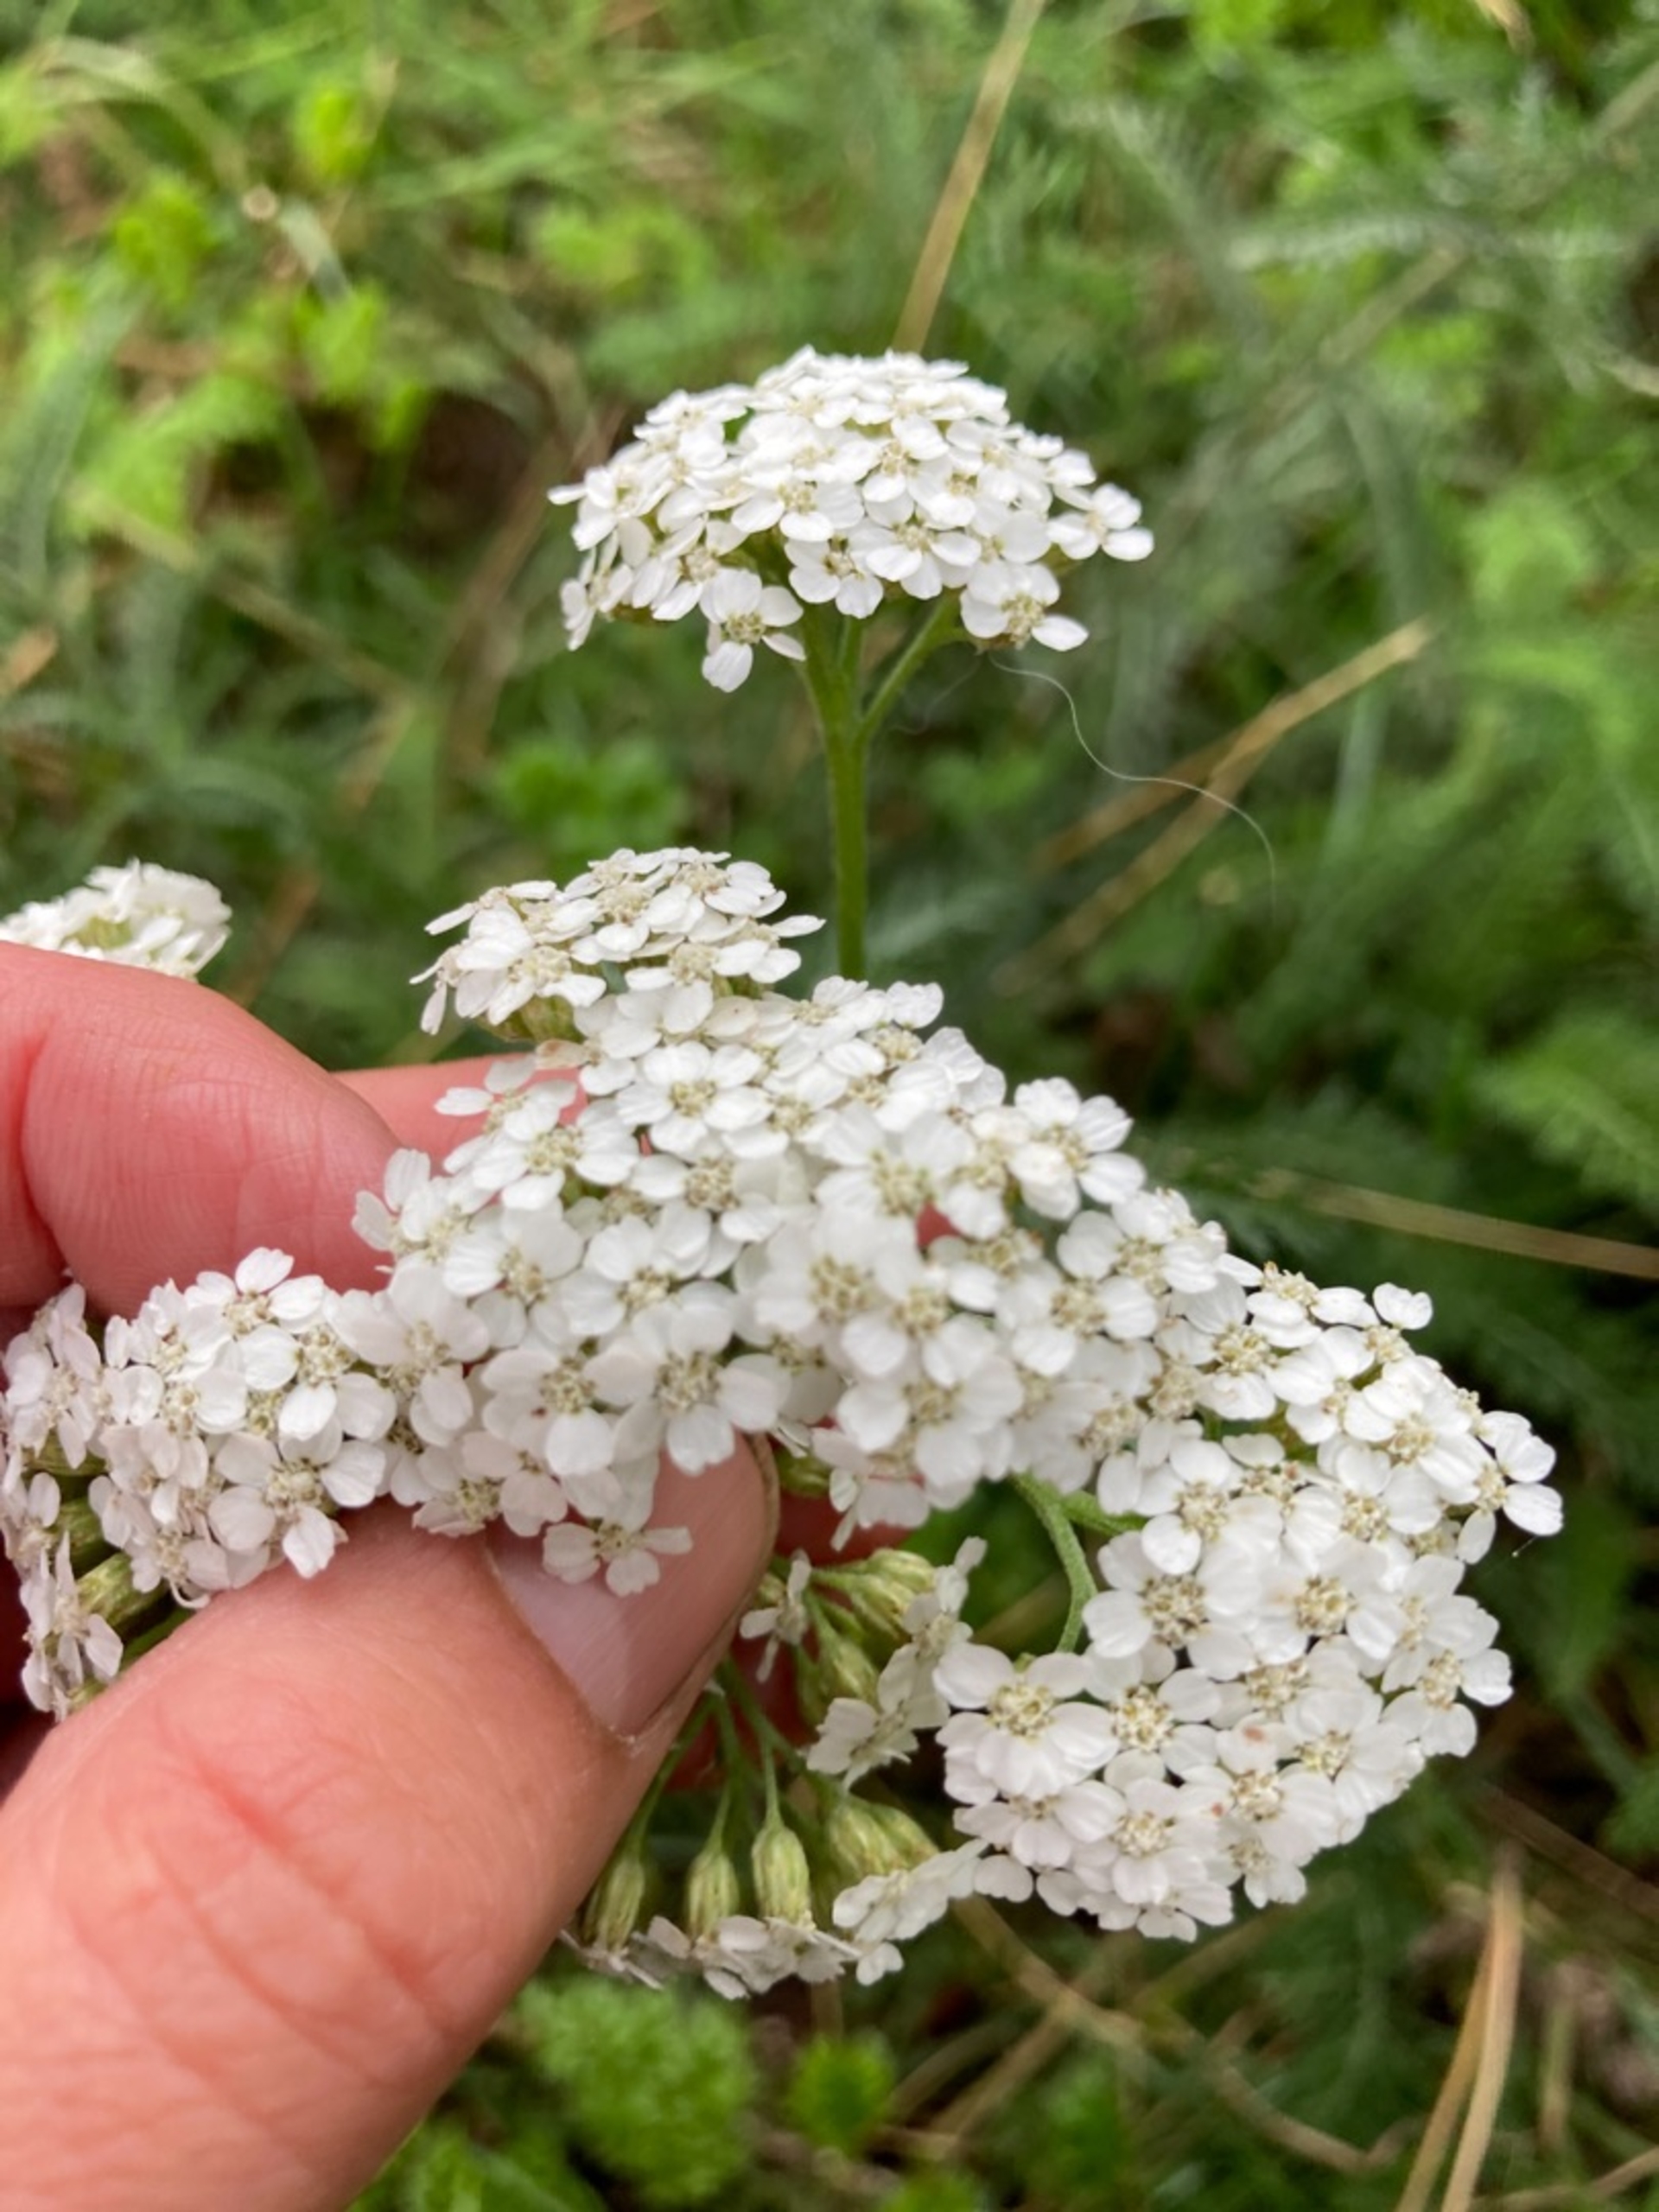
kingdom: Plantae
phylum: Tracheophyta
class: Magnoliopsida
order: Asterales
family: Asteraceae
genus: Achillea
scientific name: Achillea millefolium
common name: Almindelig røllike
